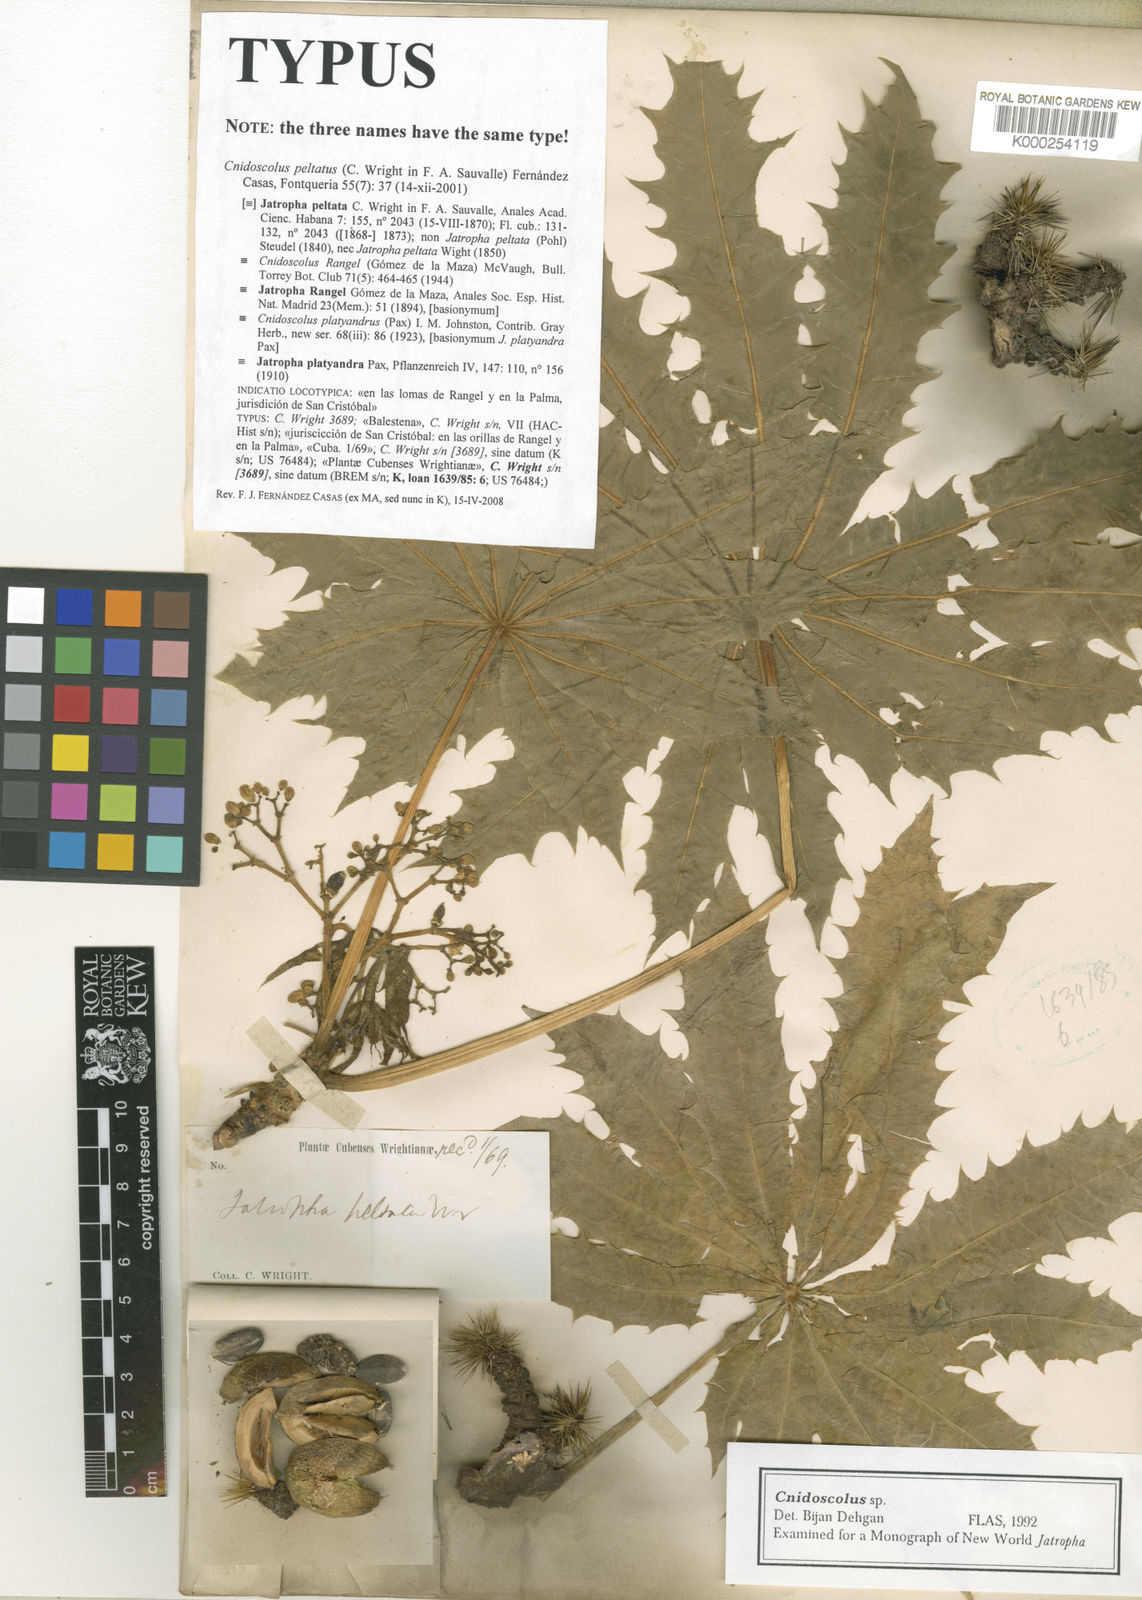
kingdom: Plantae
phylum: Tracheophyta
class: Magnoliopsida
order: Malpighiales
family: Euphorbiaceae
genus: Cnidoscolus
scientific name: Cnidoscolus
